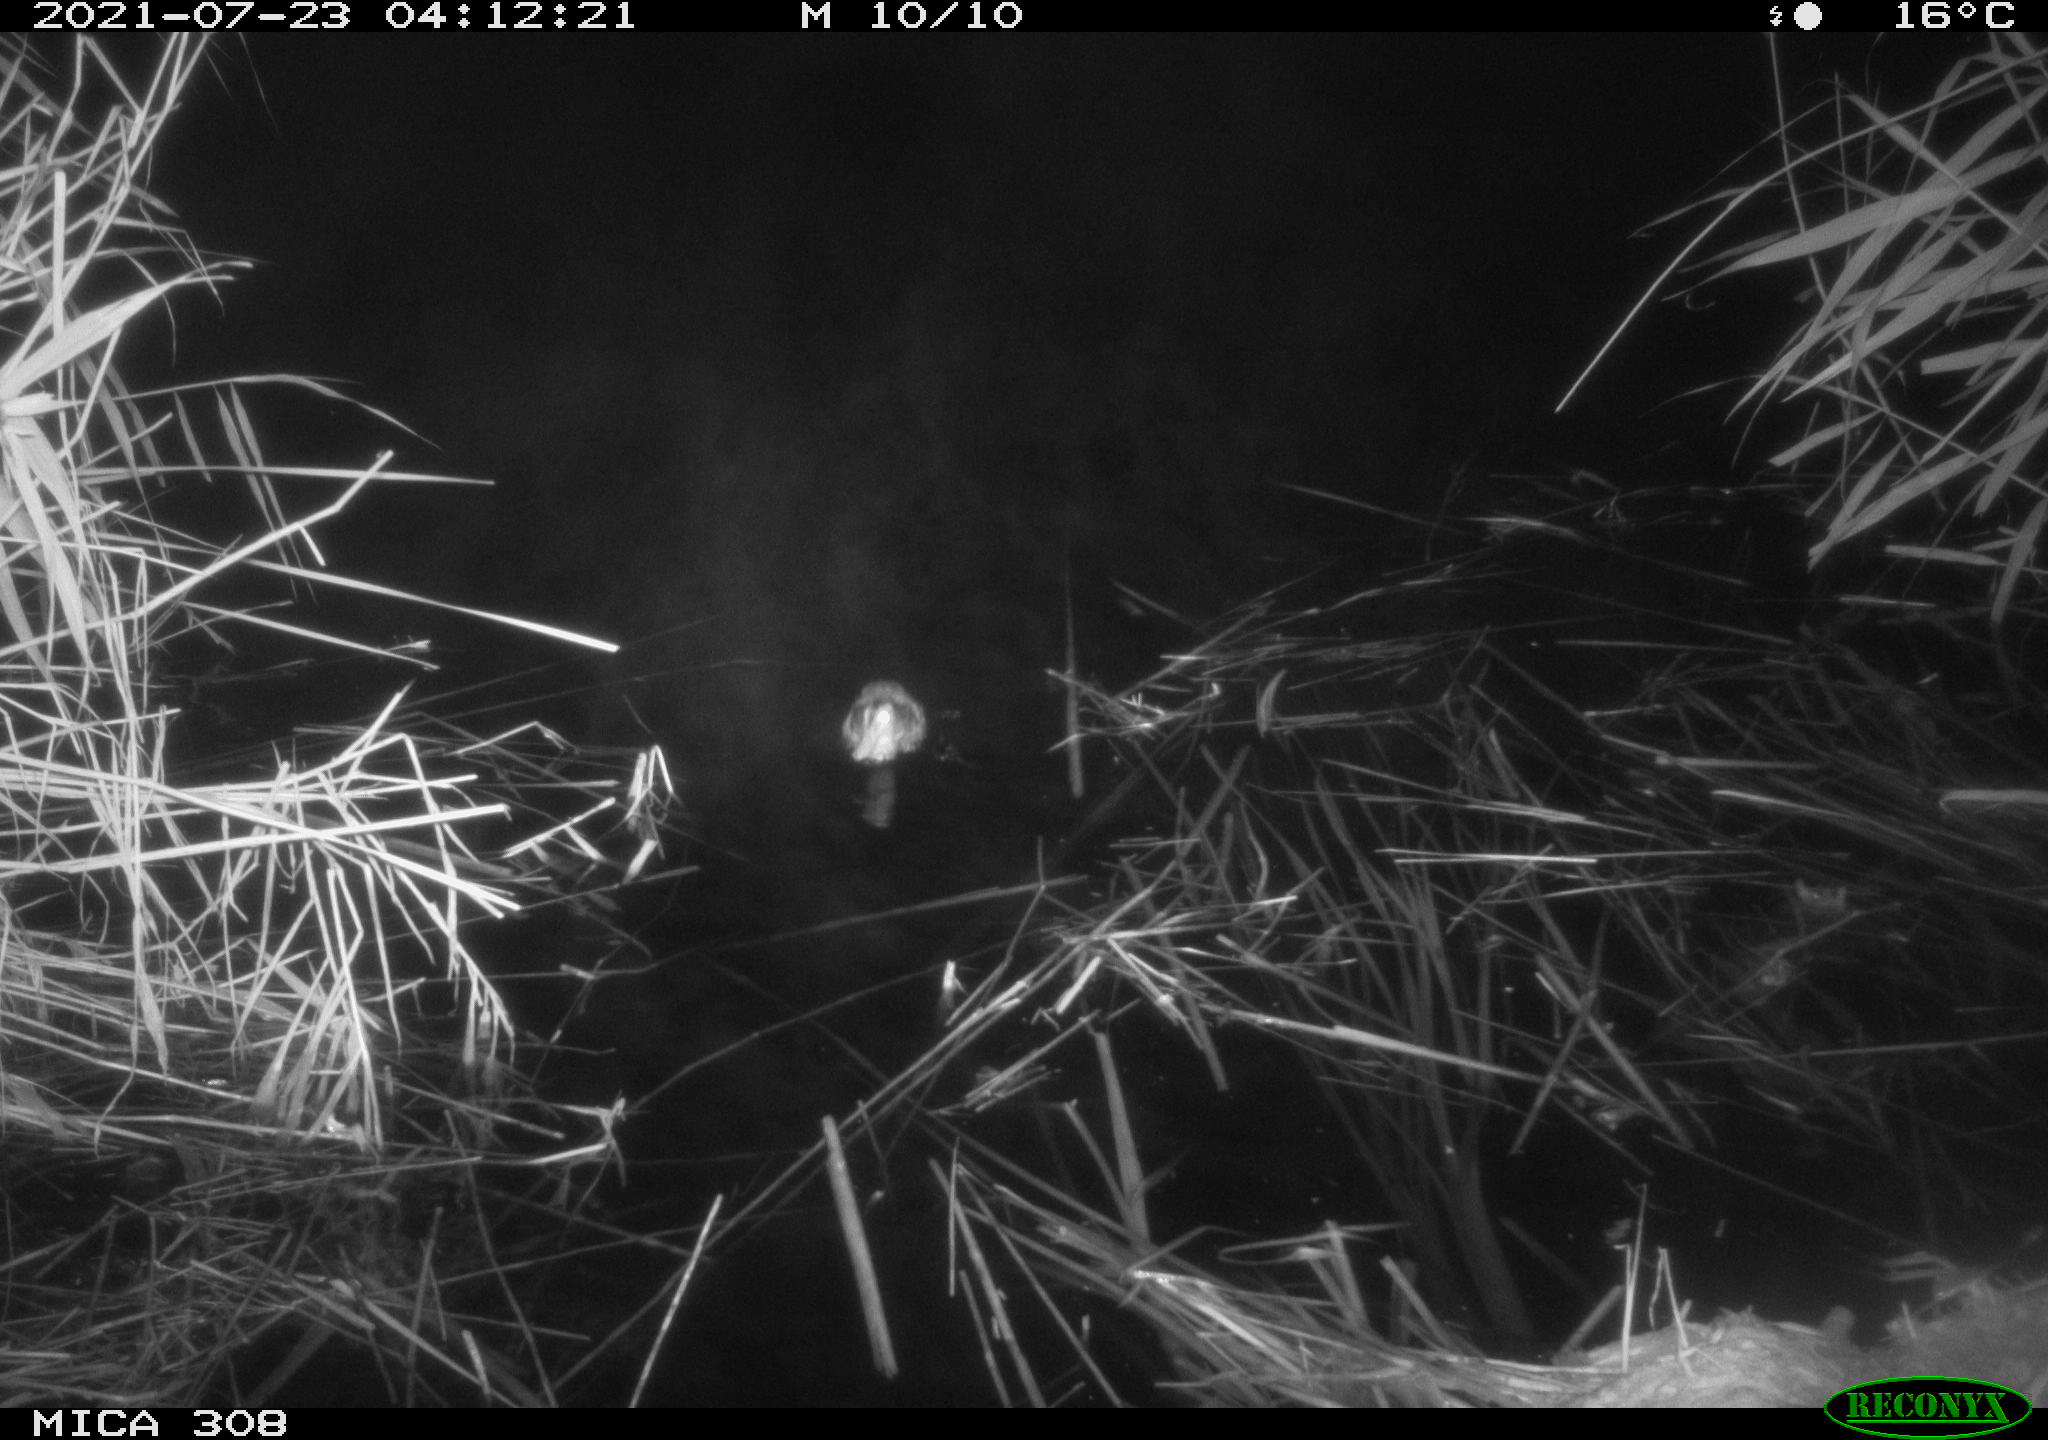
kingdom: Animalia
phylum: Chordata
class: Aves
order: Anseriformes
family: Anatidae
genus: Anas
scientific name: Anas platyrhynchos
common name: Mallard
